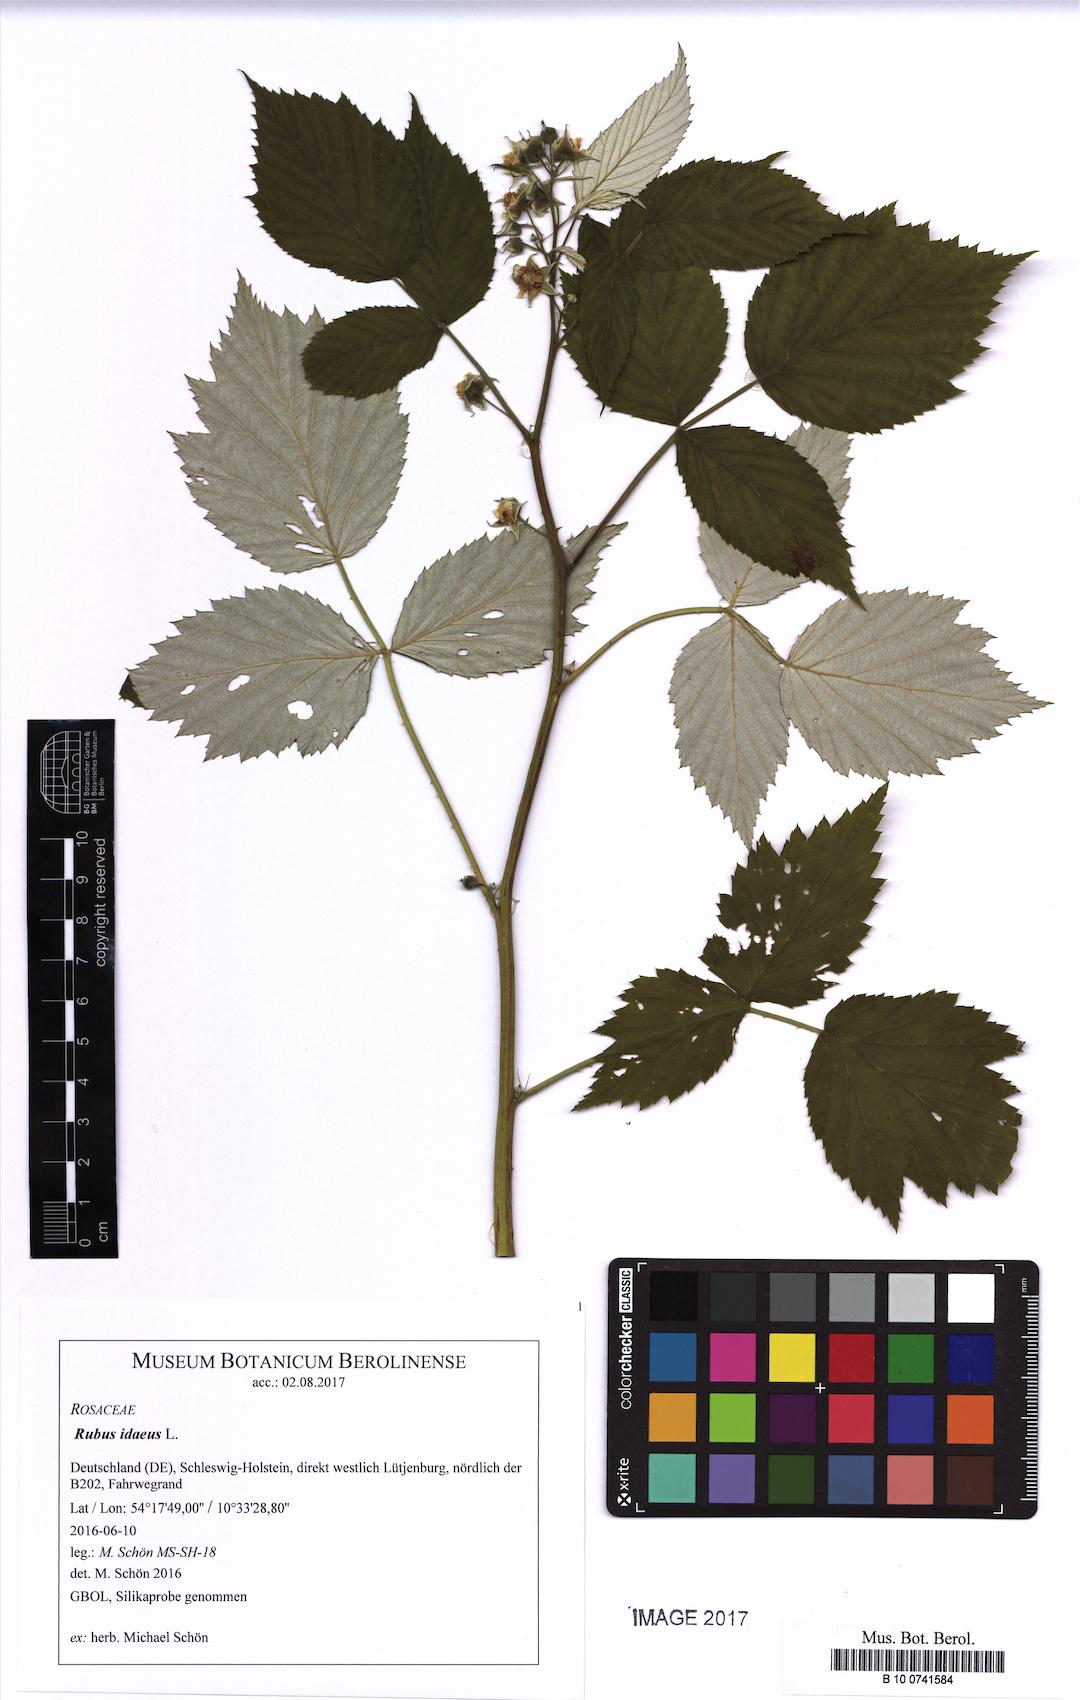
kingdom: Plantae
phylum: Tracheophyta
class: Magnoliopsida
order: Rosales
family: Rosaceae
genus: Rubus
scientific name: Rubus idaeus
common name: Raspberry
